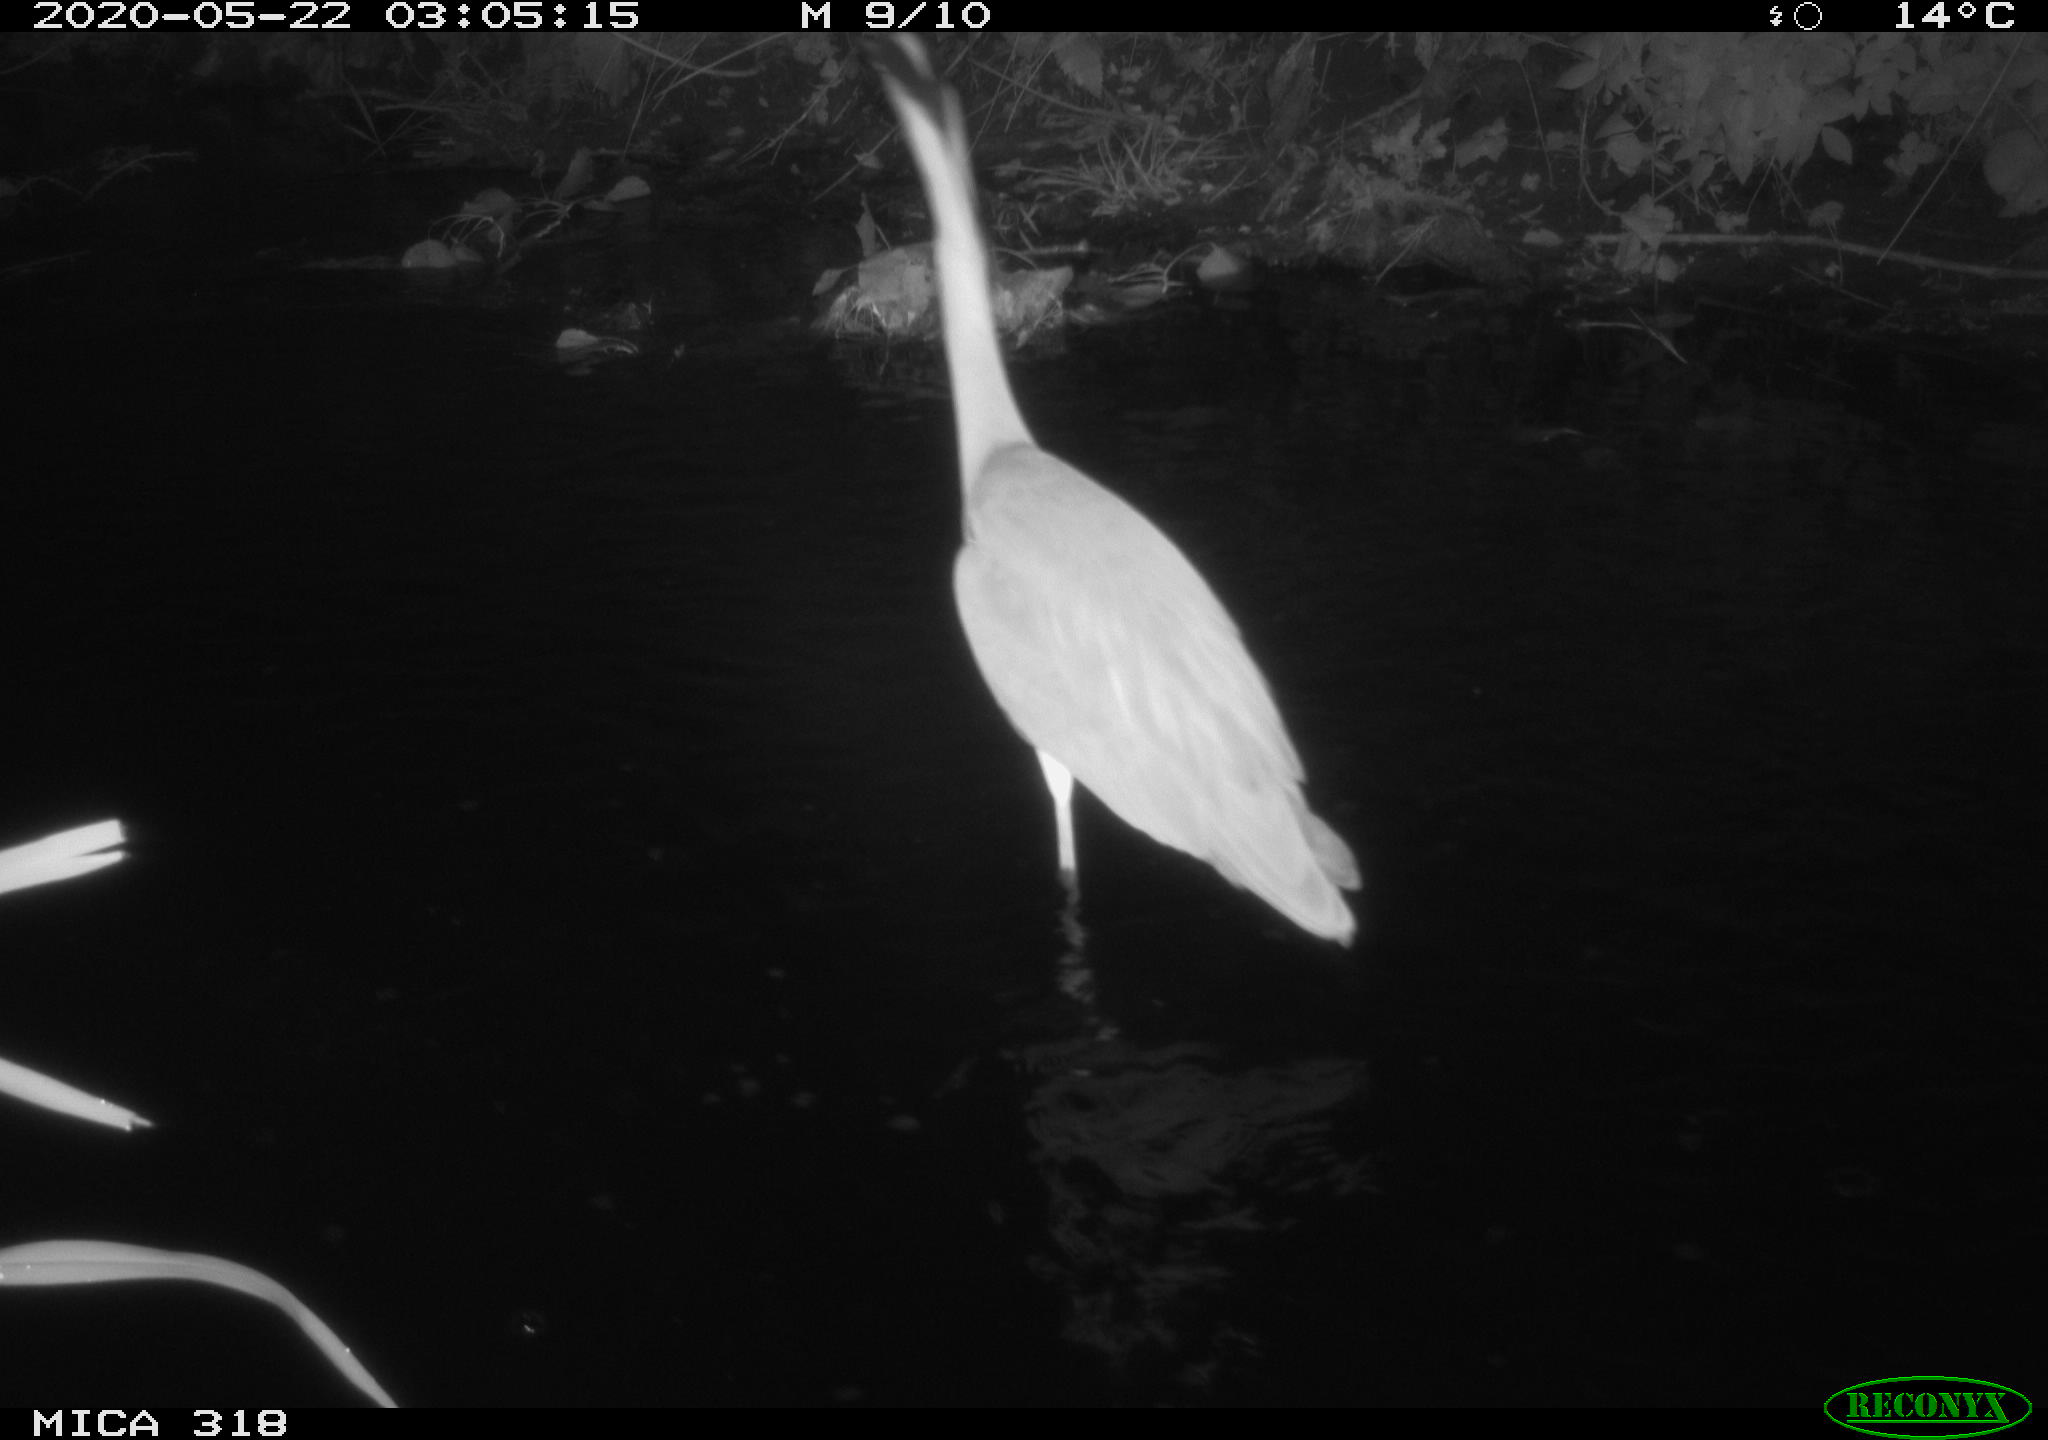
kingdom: Animalia
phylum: Chordata
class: Aves
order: Pelecaniformes
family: Ardeidae
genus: Ardea
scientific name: Ardea cinerea
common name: Grey heron
